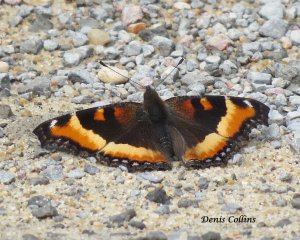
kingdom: Animalia
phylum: Arthropoda
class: Insecta
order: Lepidoptera
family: Nymphalidae
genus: Aglais
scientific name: Aglais milberti
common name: Milbert's Tortoiseshell
